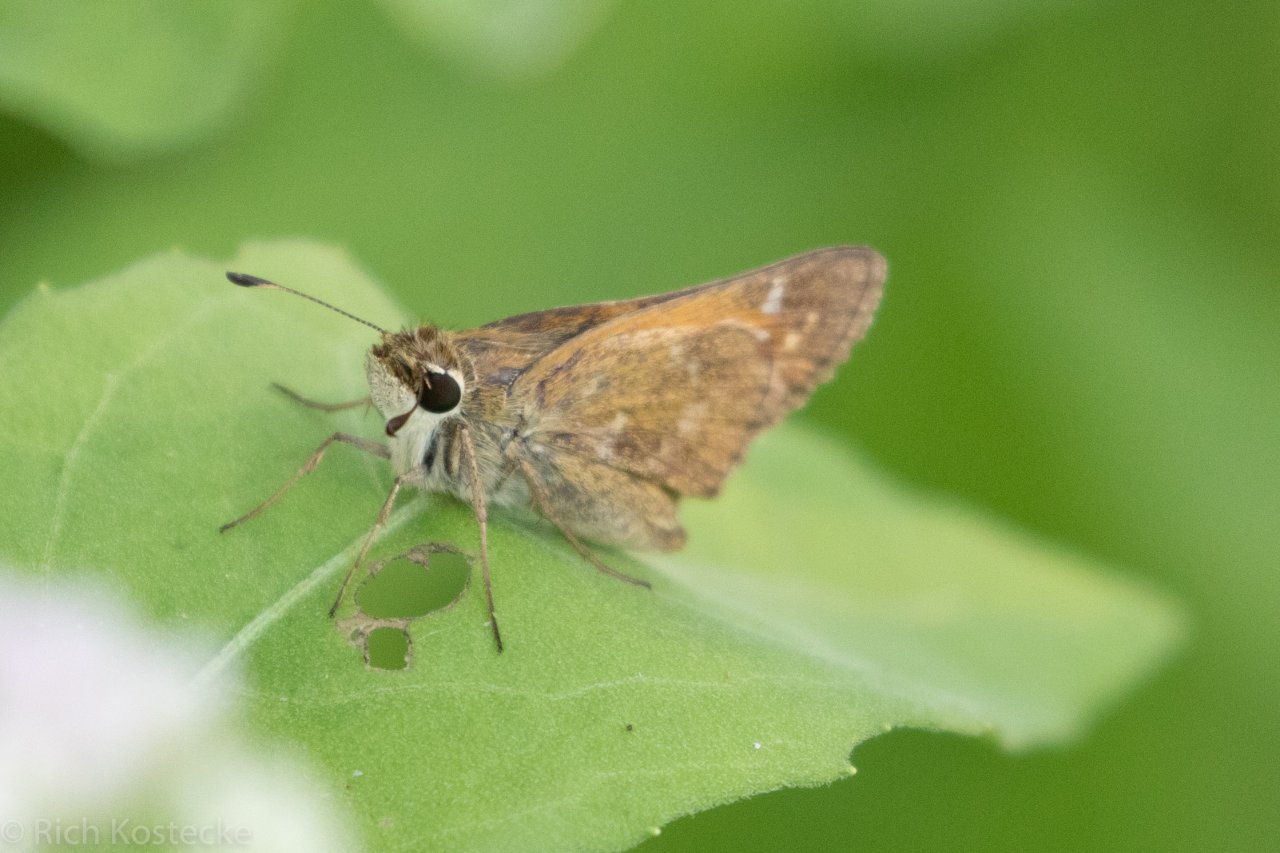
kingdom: Animalia
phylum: Arthropoda
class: Insecta
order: Lepidoptera
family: Hesperiidae
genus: Atalopedes
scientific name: Atalopedes campestris
